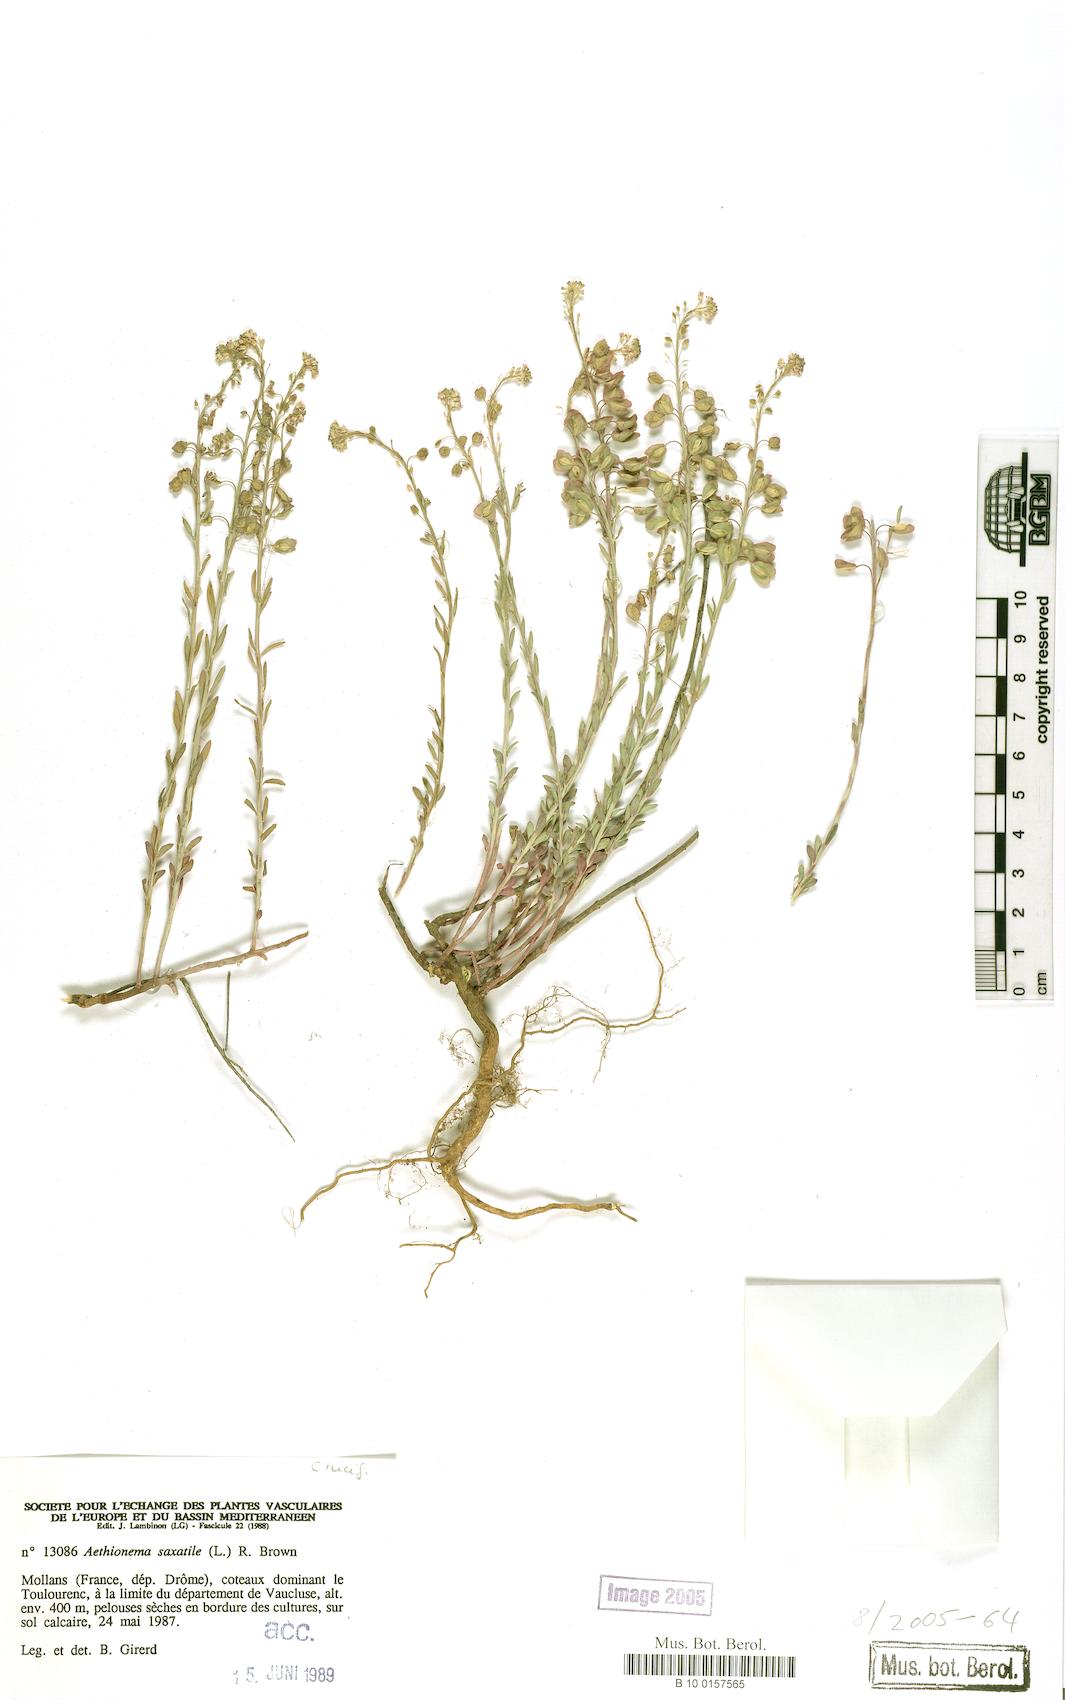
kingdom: Plantae
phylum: Tracheophyta
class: Magnoliopsida
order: Brassicales
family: Brassicaceae
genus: Aethionema
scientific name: Aethionema saxatile
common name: Burnt candytuft
